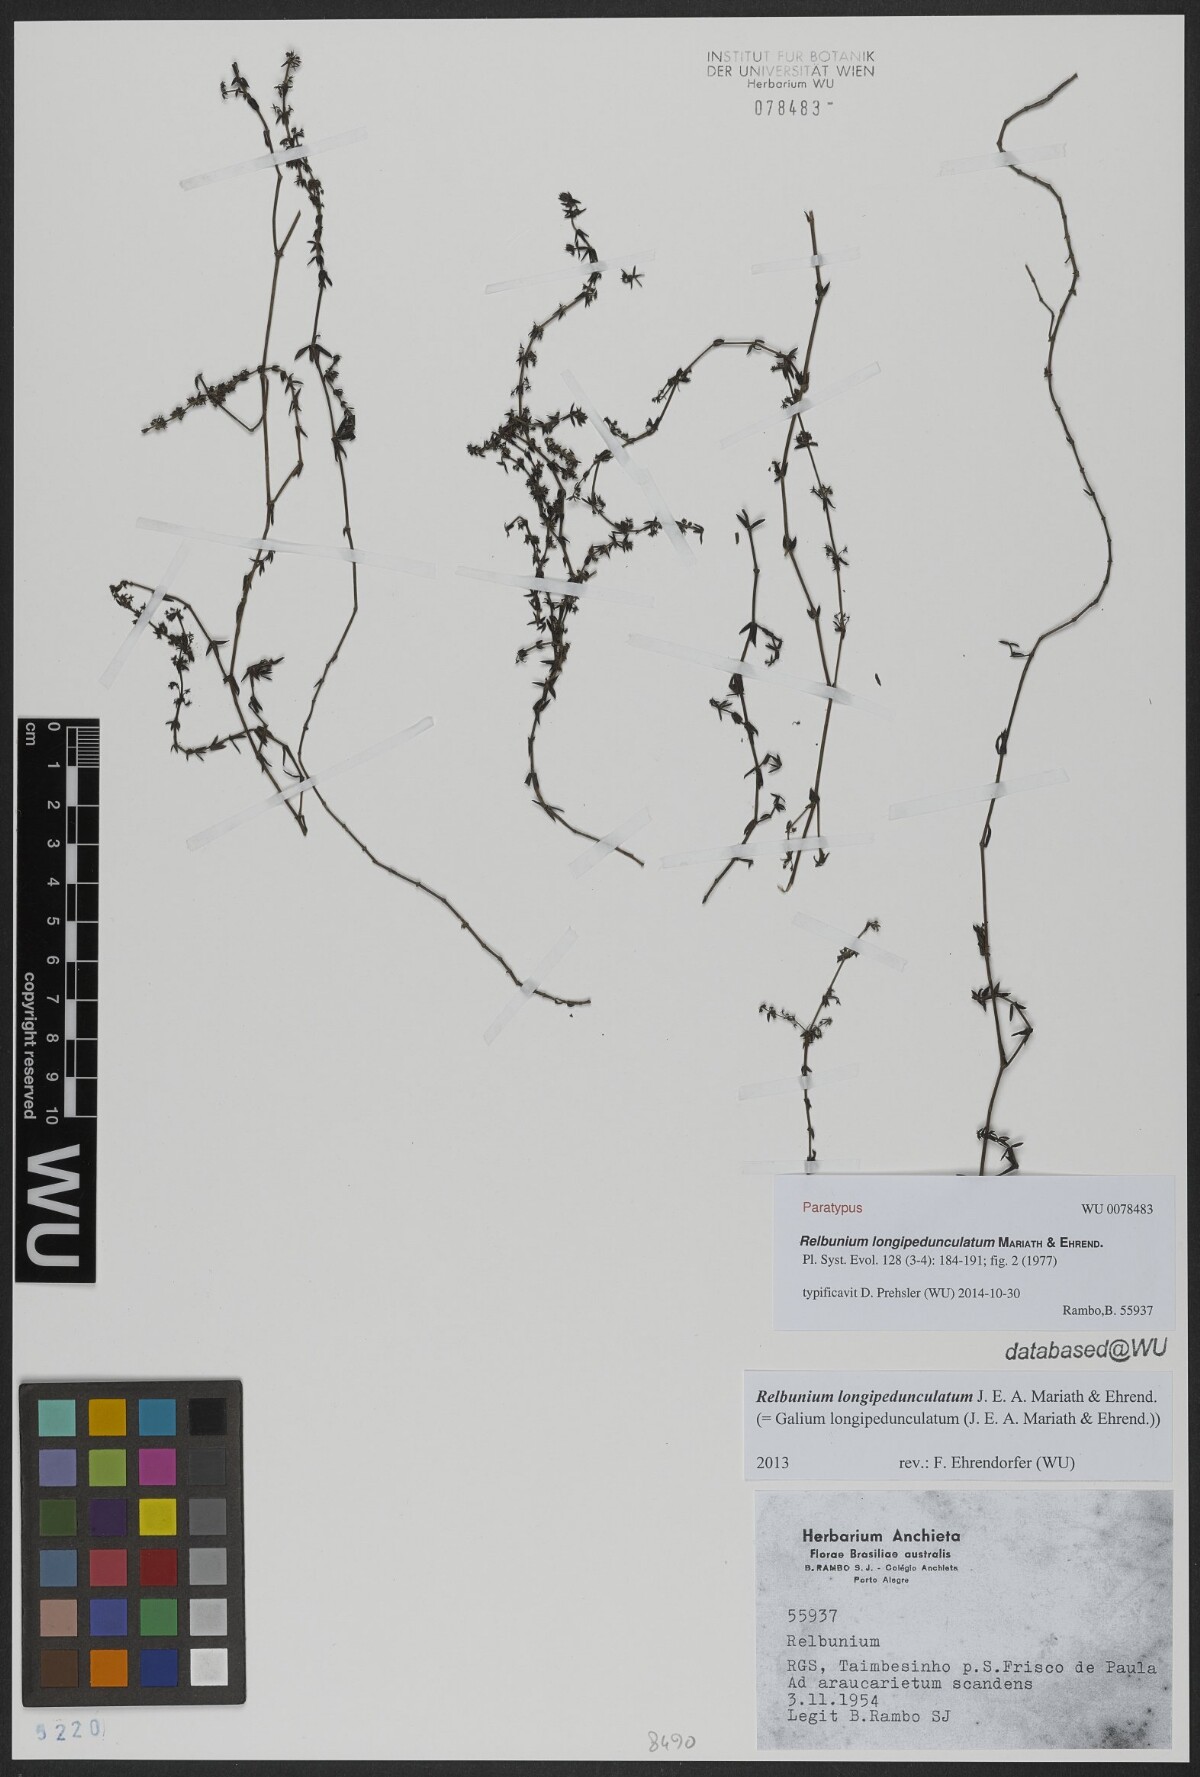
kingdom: Plantae
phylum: Tracheophyta
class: Magnoliopsida
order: Gentianales
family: Rubiaceae
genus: Galium
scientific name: Galium longipedunculatum
